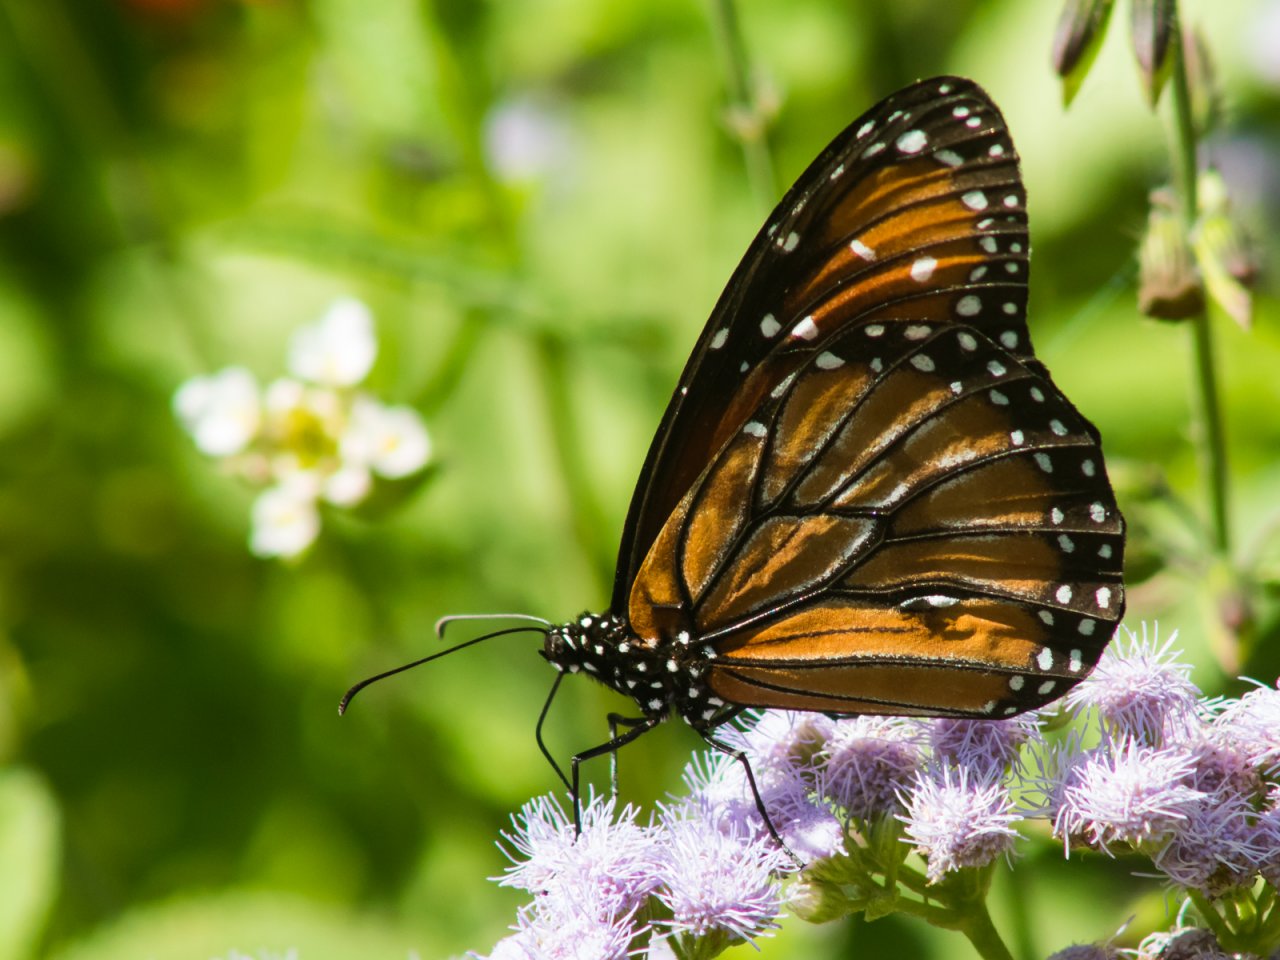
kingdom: Animalia
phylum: Arthropoda
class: Insecta
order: Lepidoptera
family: Nymphalidae
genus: Danaus
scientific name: Danaus eresimus
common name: Soldier
